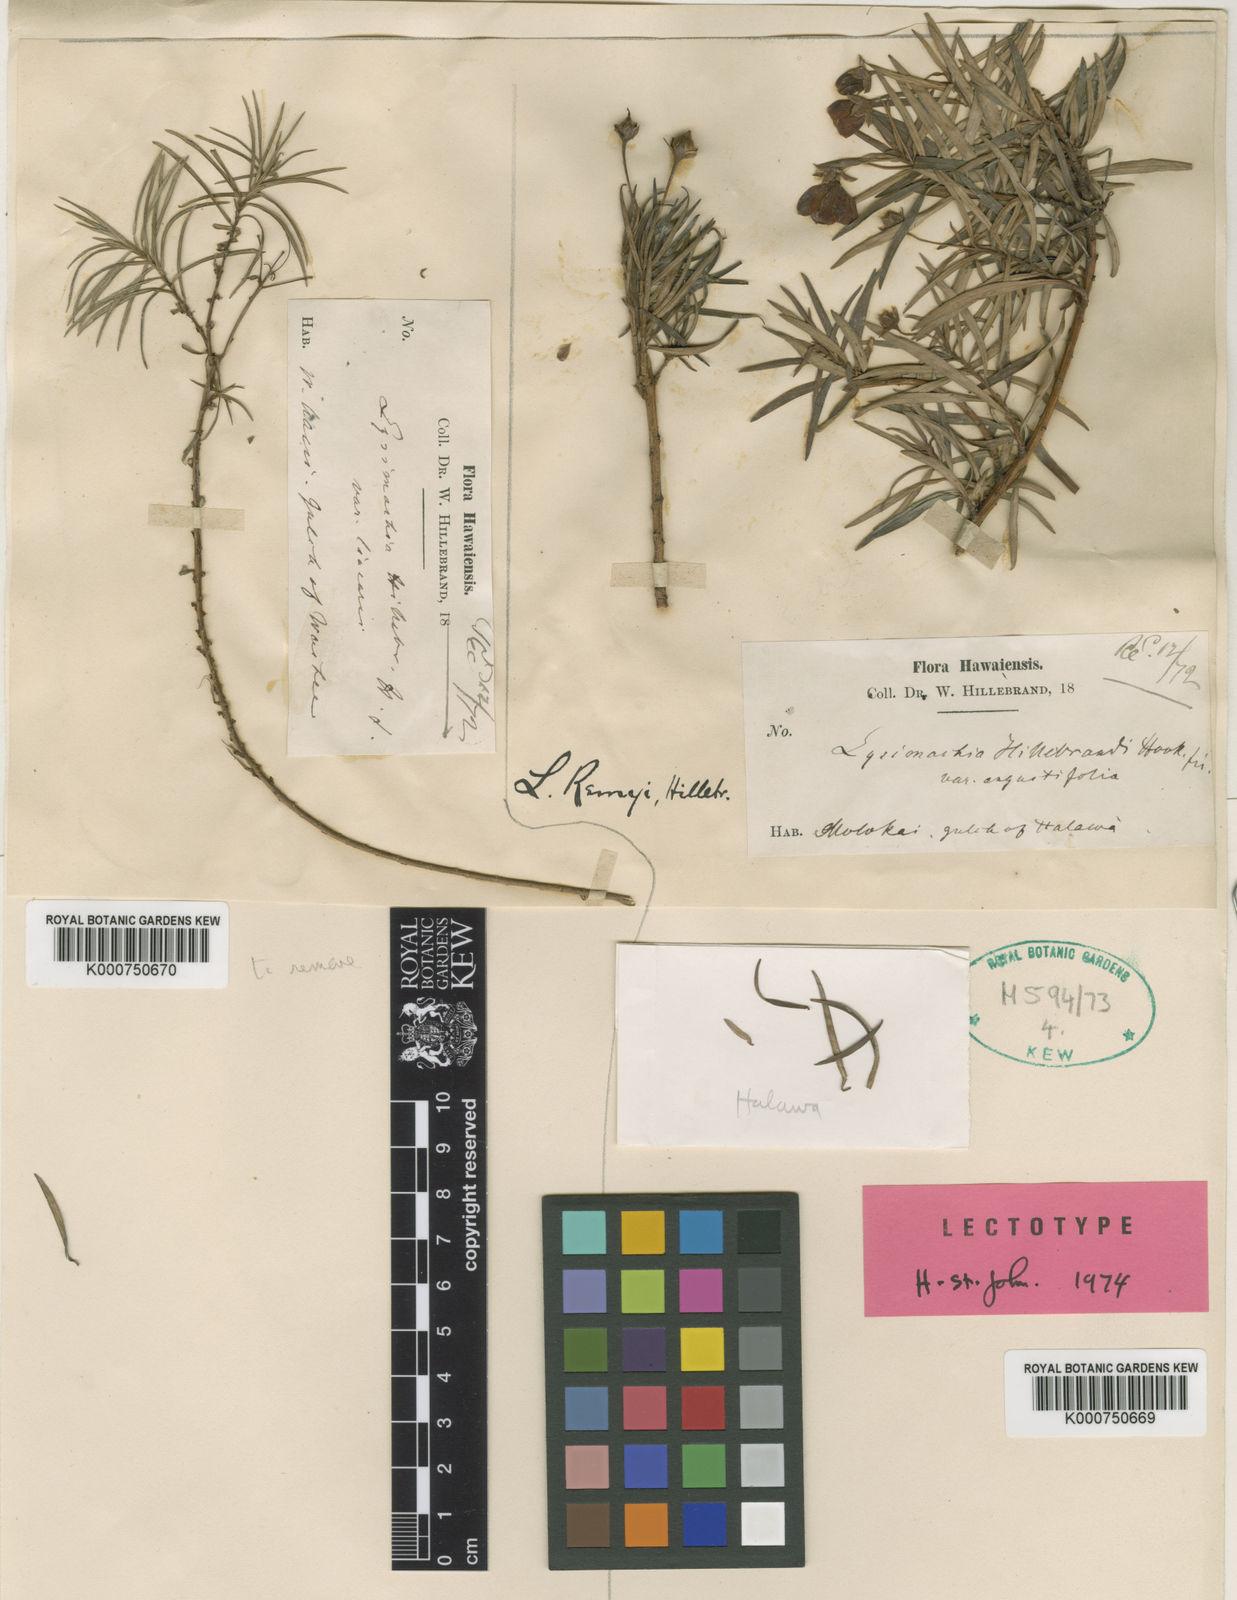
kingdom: Plantae
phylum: Tracheophyta
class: Magnoliopsida
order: Ericales
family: Primulaceae
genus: Lysimachia
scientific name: Lysimachia remyi
